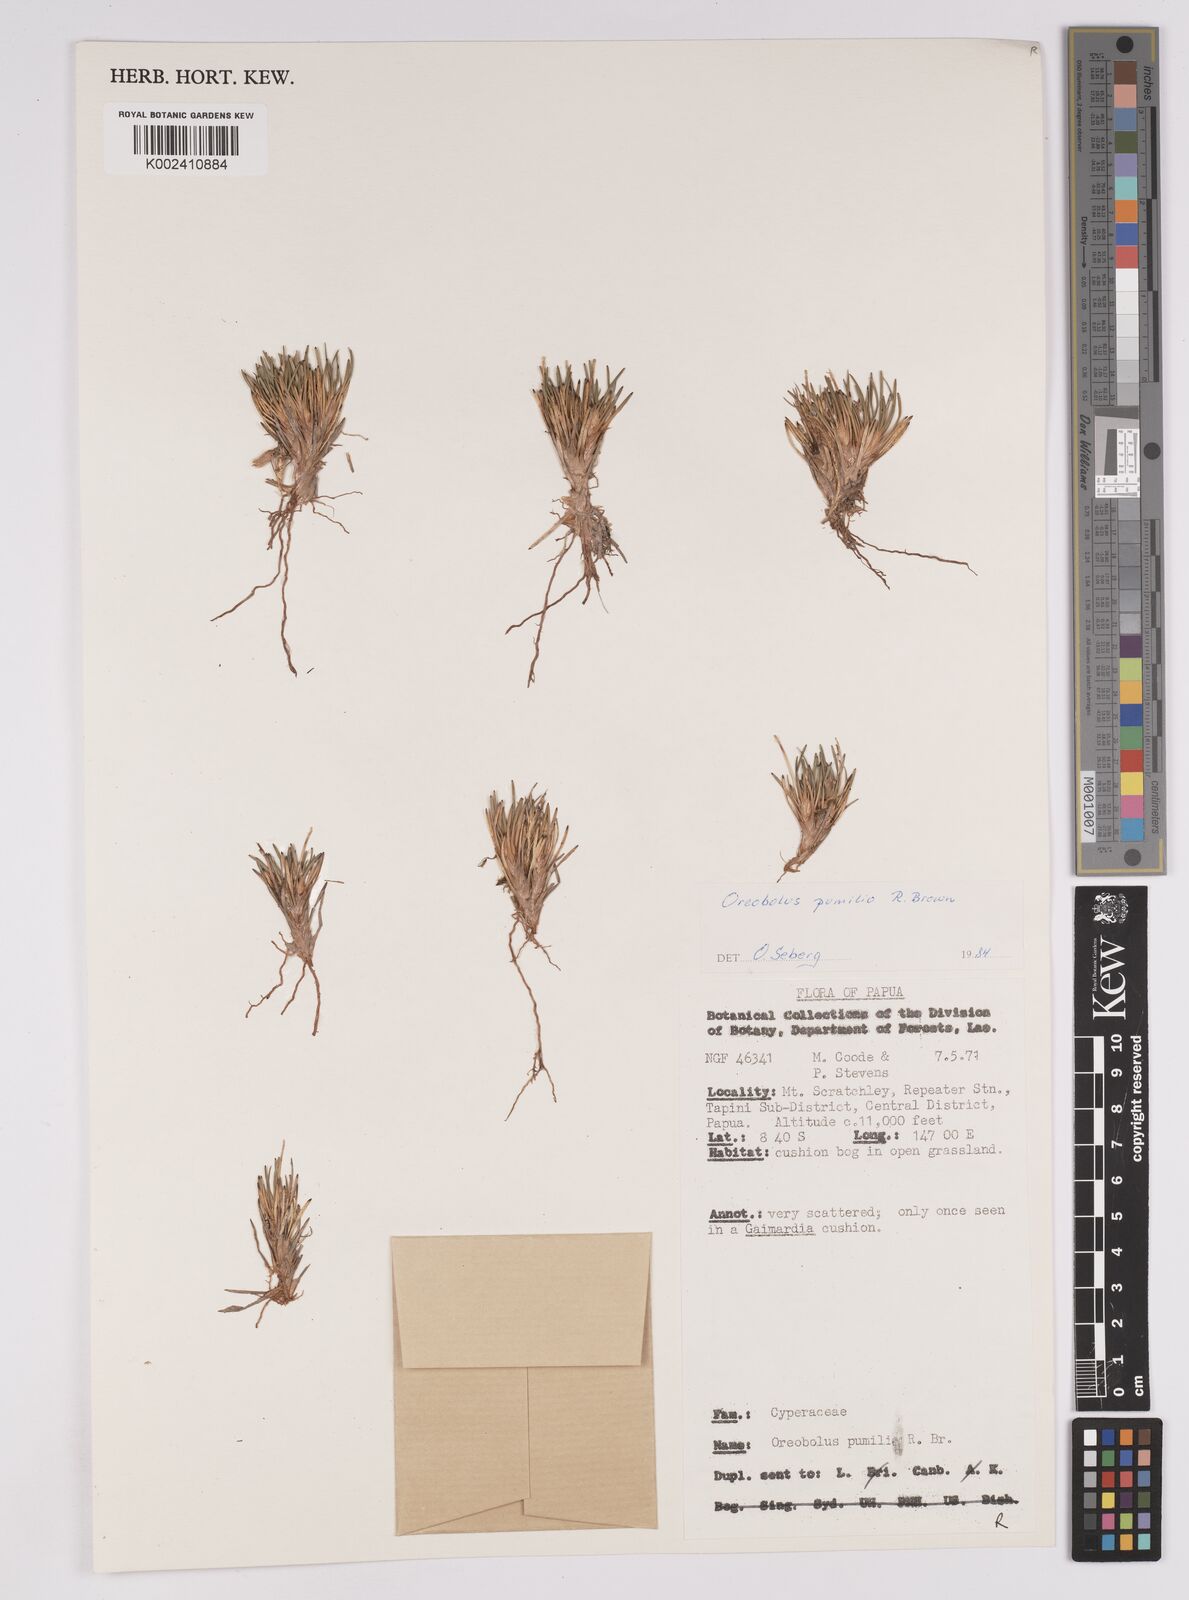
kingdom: Plantae
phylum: Tracheophyta
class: Liliopsida
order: Poales
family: Cyperaceae
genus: Oreobolus
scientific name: Oreobolus pumilio
